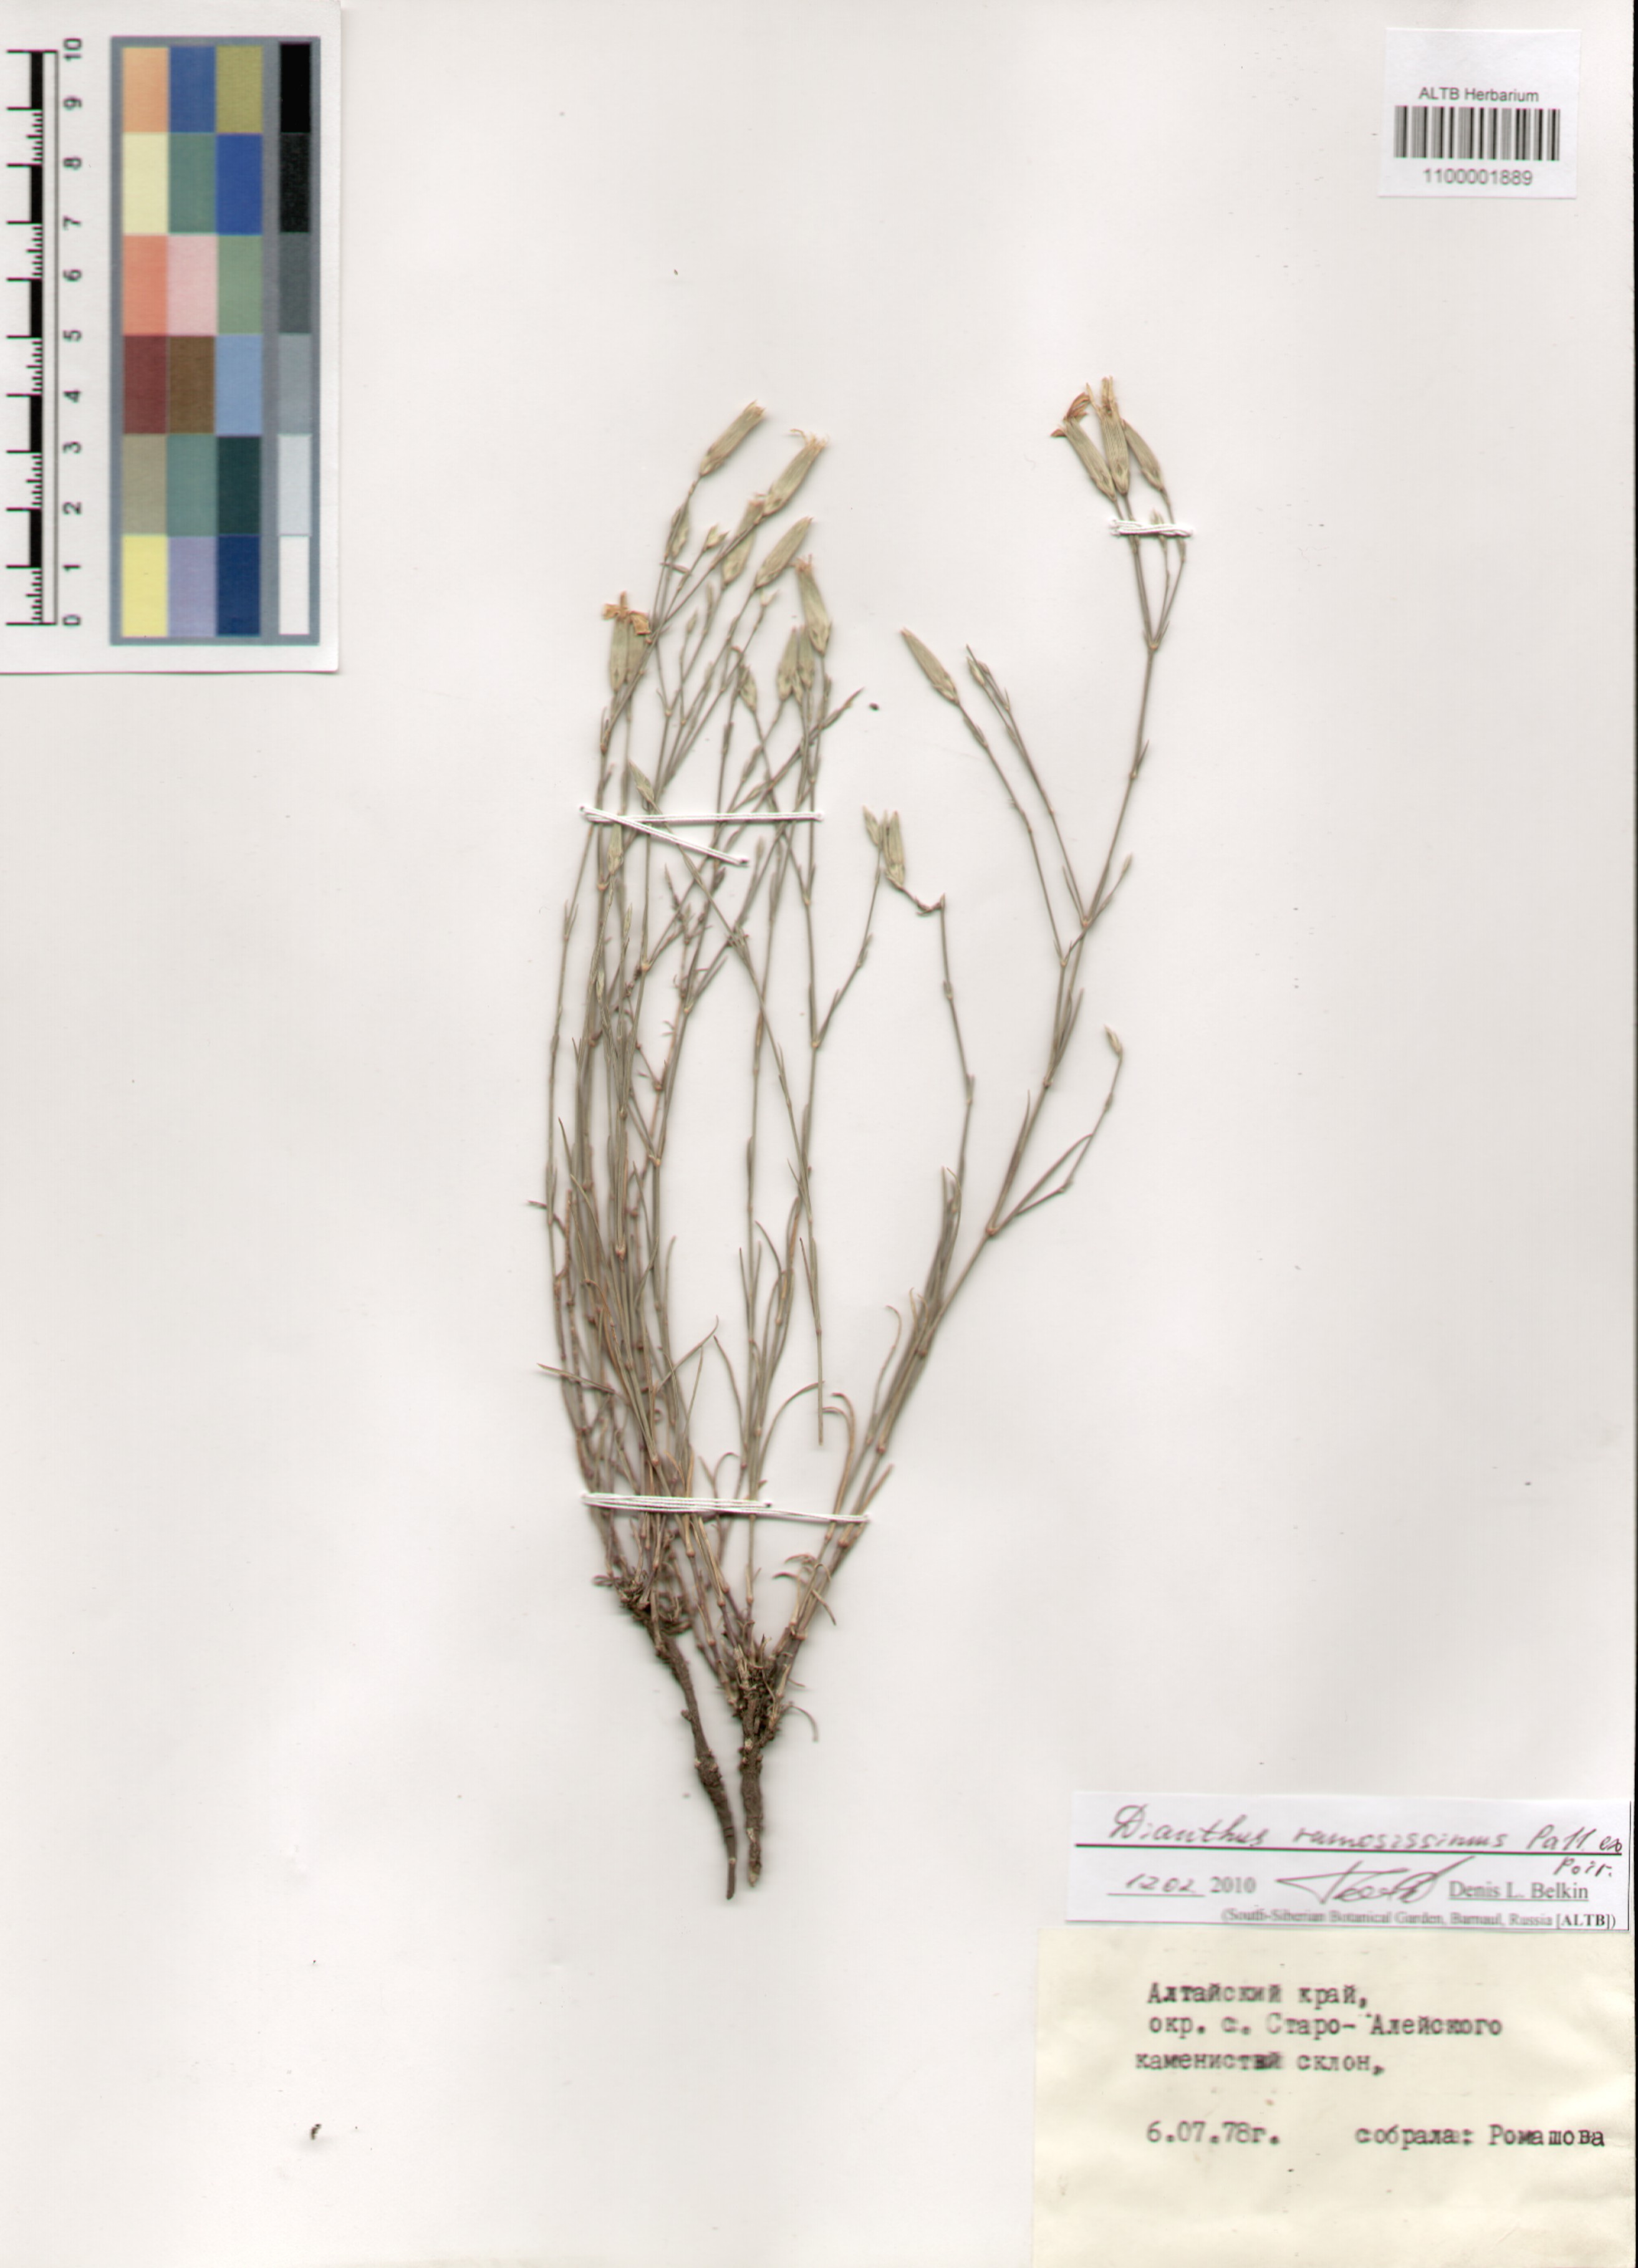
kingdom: Plantae
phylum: Tracheophyta
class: Magnoliopsida
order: Caryophyllales
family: Caryophyllaceae
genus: Dianthus
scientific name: Dianthus ramosissimus
